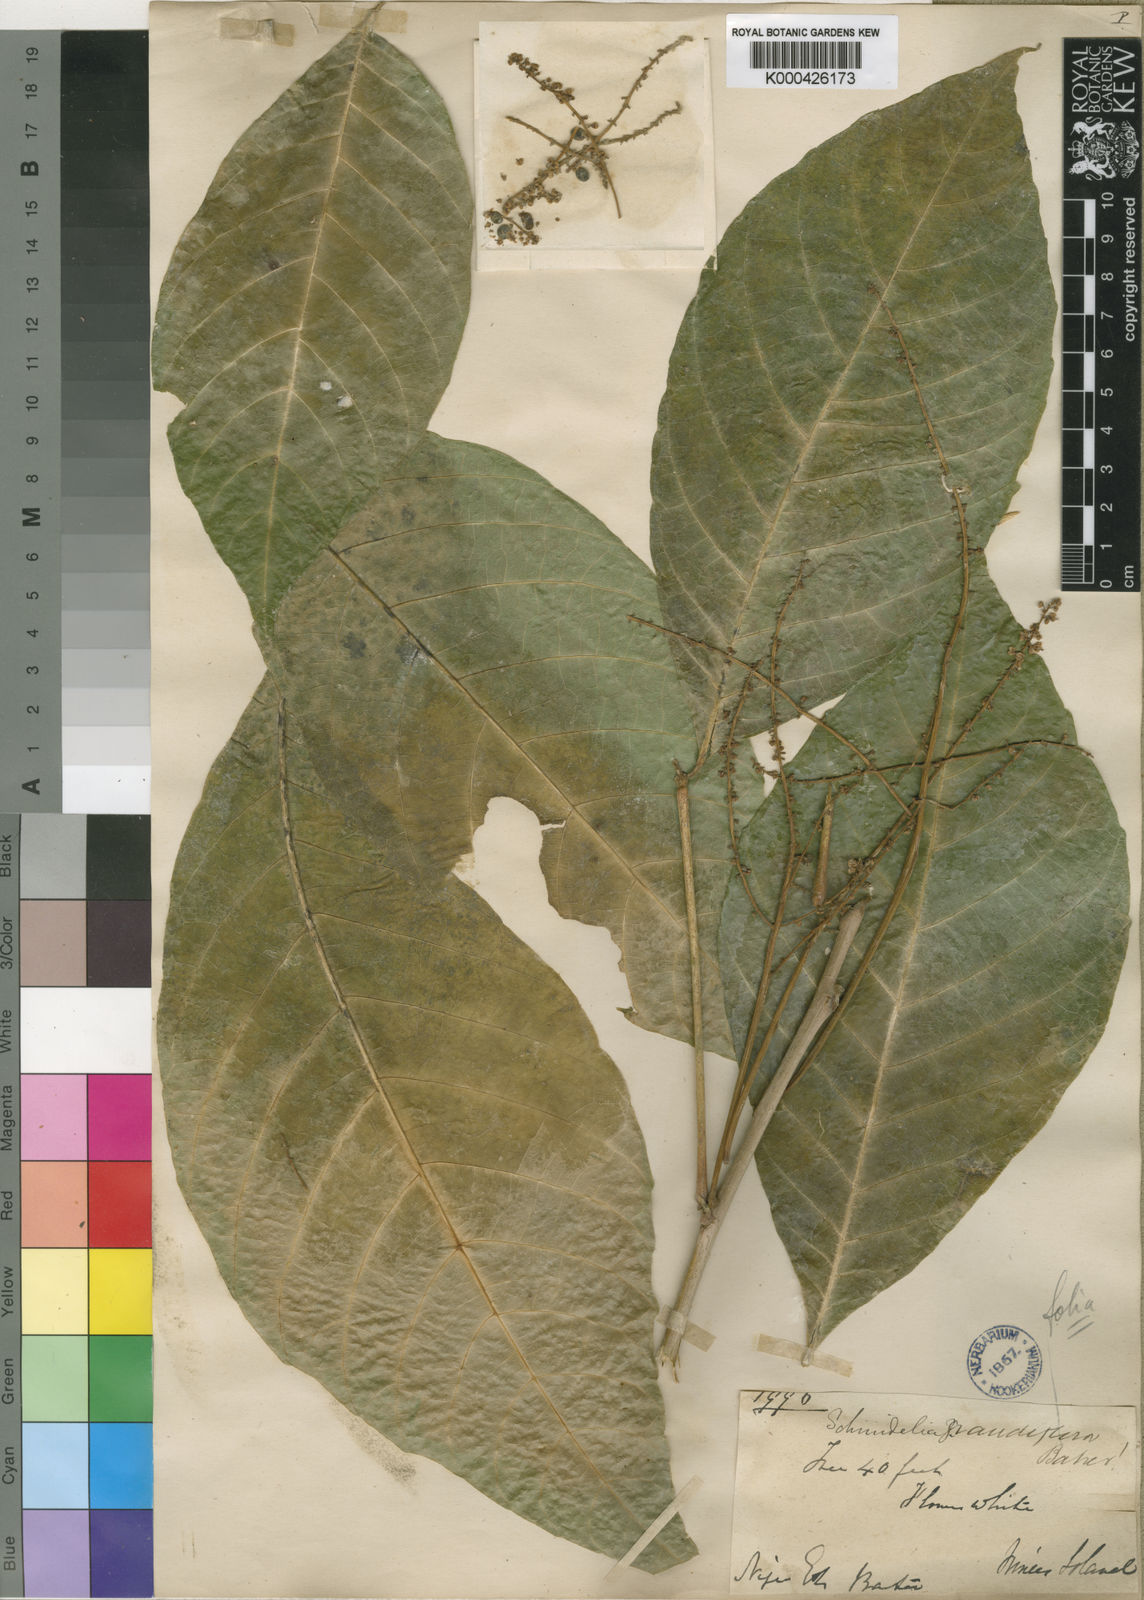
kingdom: Plantae
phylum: Tracheophyta
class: Magnoliopsida
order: Sapindales
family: Sapindaceae
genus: Allophylus
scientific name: Allophylus grandifolius
